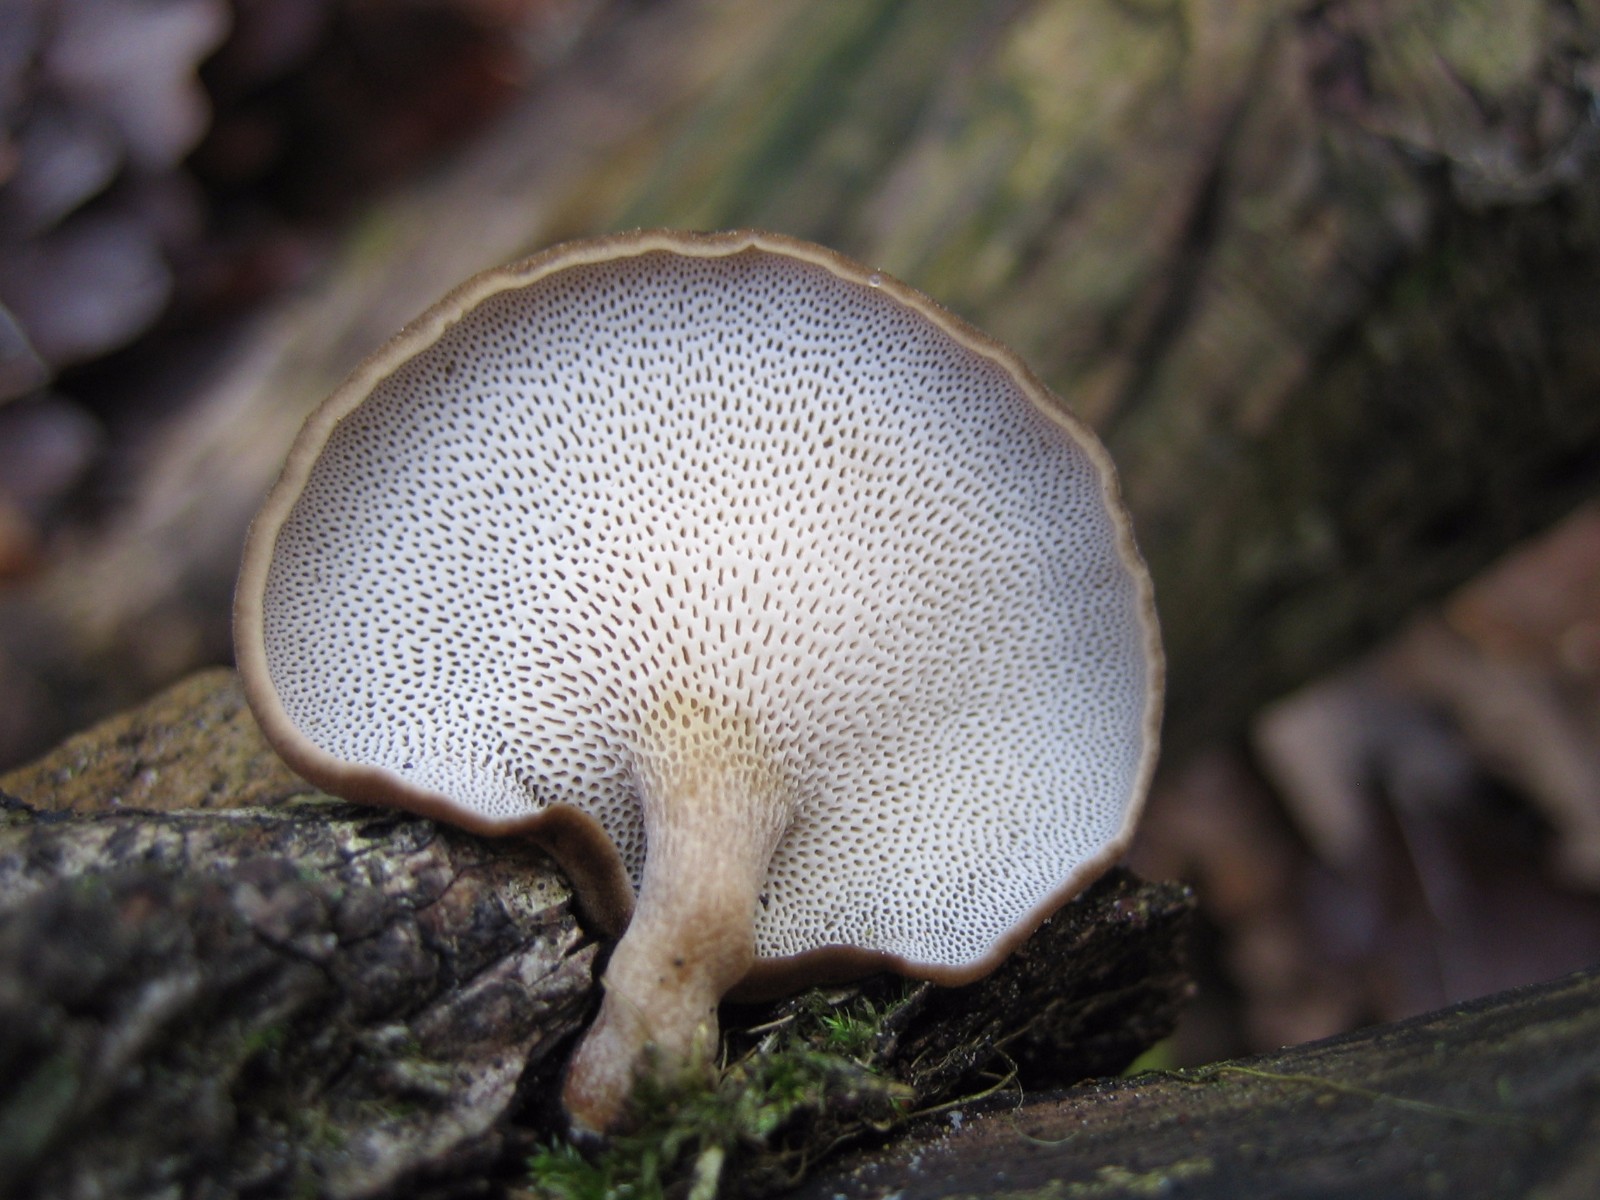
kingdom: Fungi
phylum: Basidiomycota
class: Agaricomycetes
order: Polyporales
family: Polyporaceae
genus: Lentinus
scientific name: Lentinus brumalis
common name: vinter-stilkporesvamp
